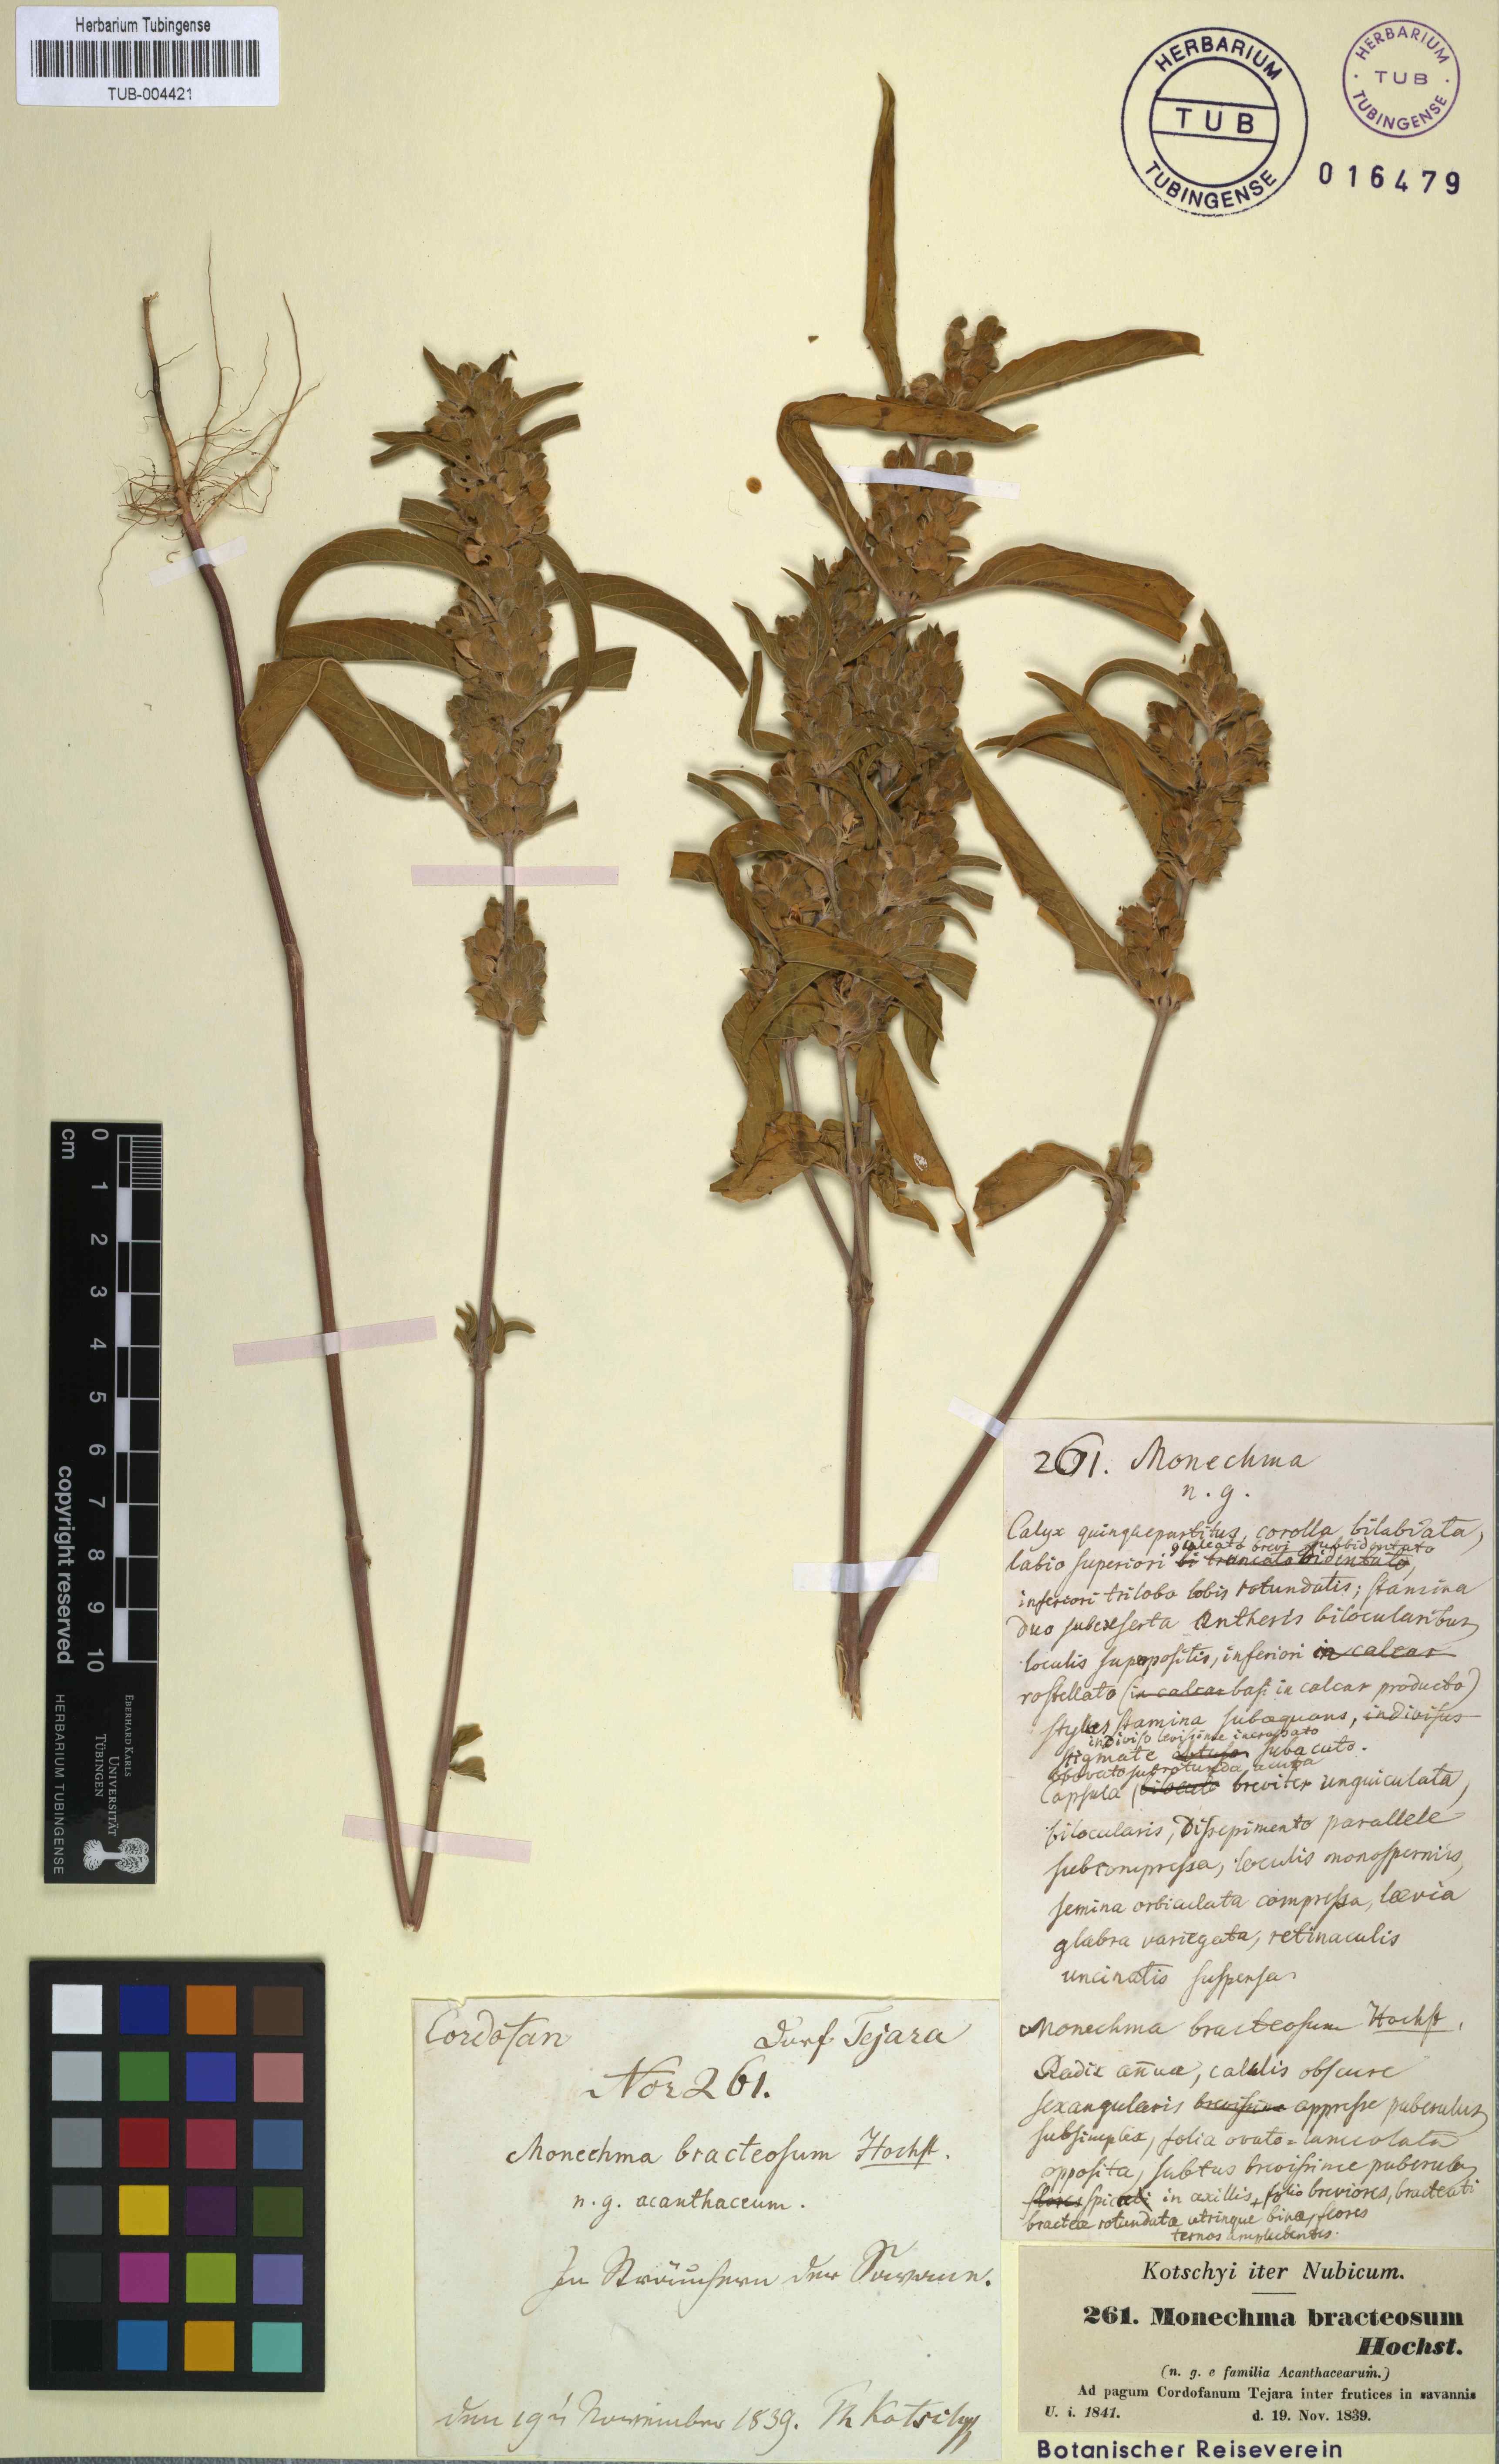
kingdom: Plantae
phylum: Tracheophyta
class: Magnoliopsida
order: Lamiales
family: Acanthaceae
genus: Monechma
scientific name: Monechma debile
